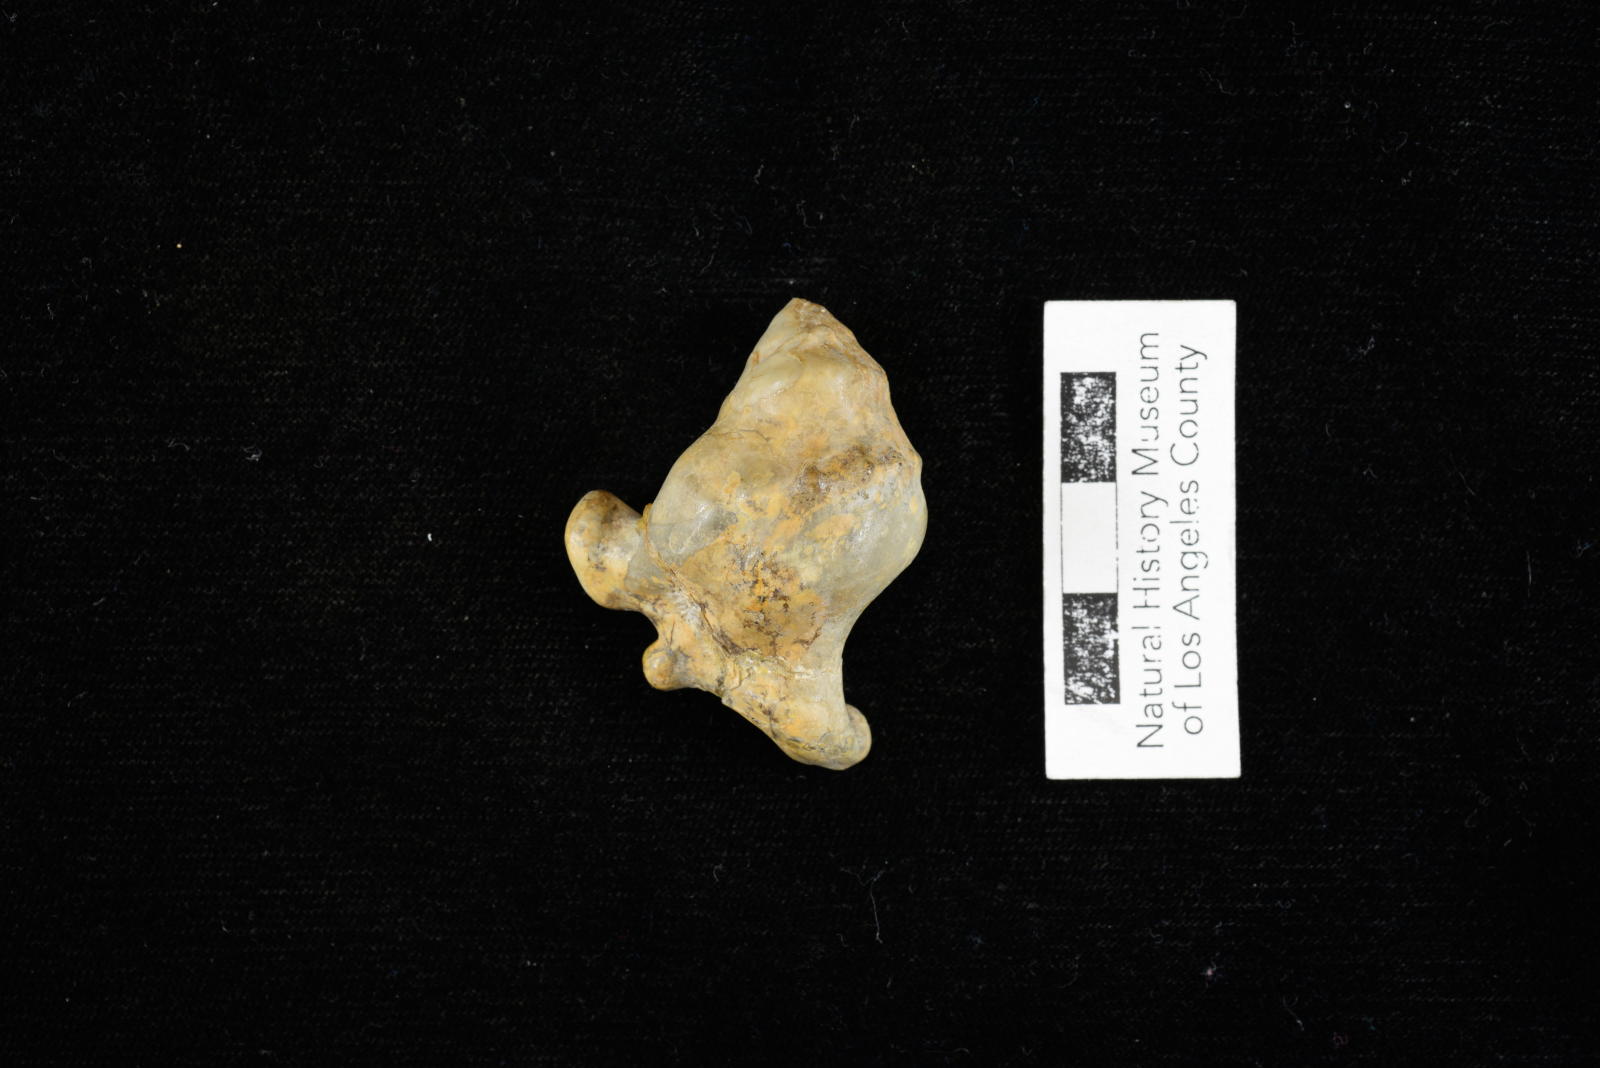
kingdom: Animalia
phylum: Mollusca
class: Gastropoda
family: Turritellidae
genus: Turritella
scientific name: Turritella chaneyi
